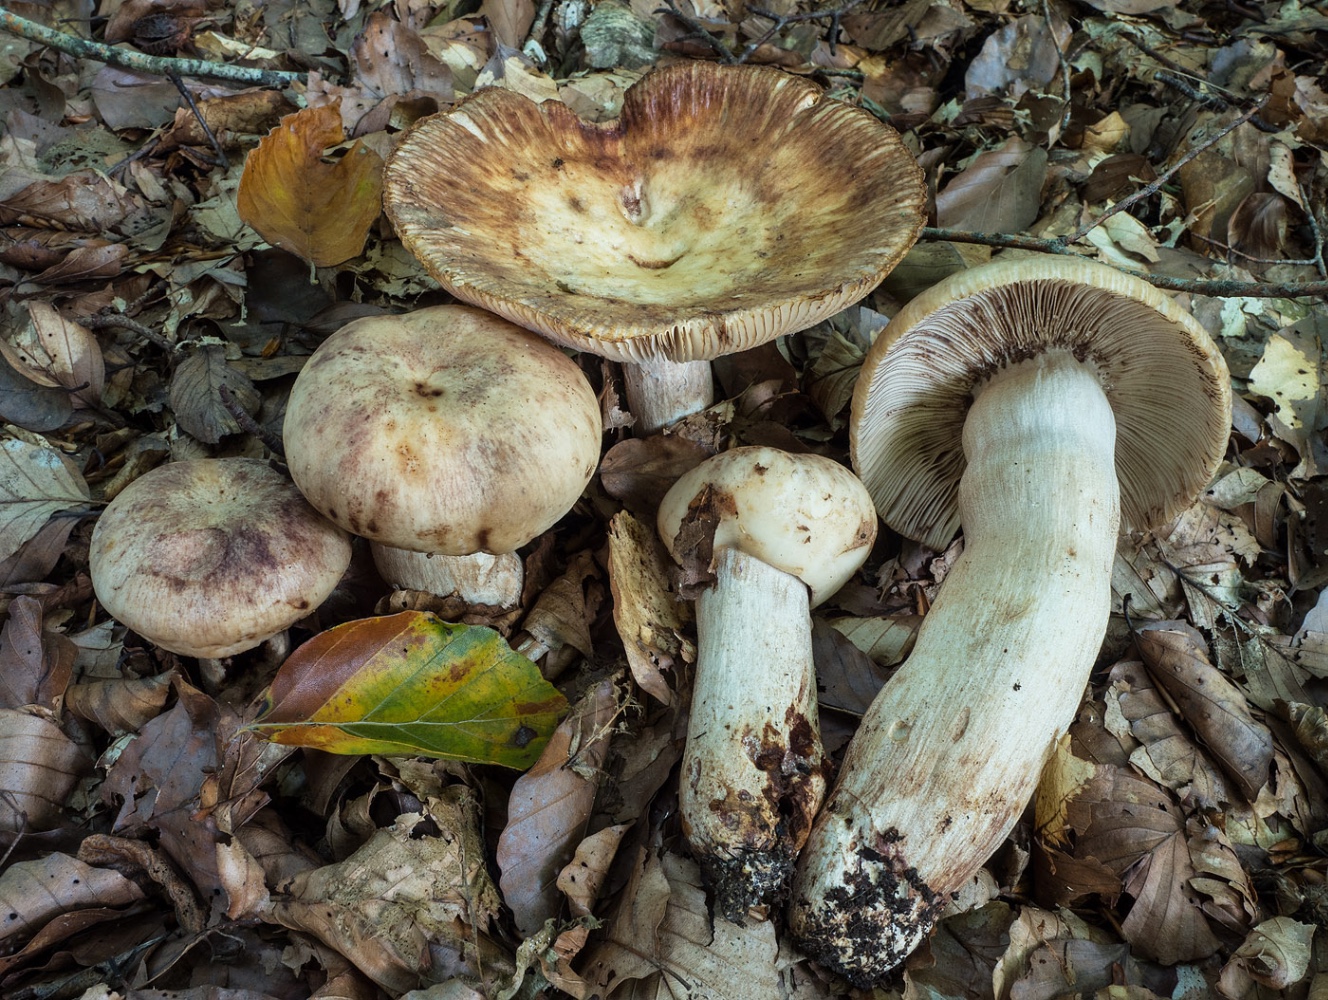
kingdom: Fungi
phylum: Basidiomycota
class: Agaricomycetes
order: Russulales
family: Russulaceae
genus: Russula
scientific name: Russula illota
